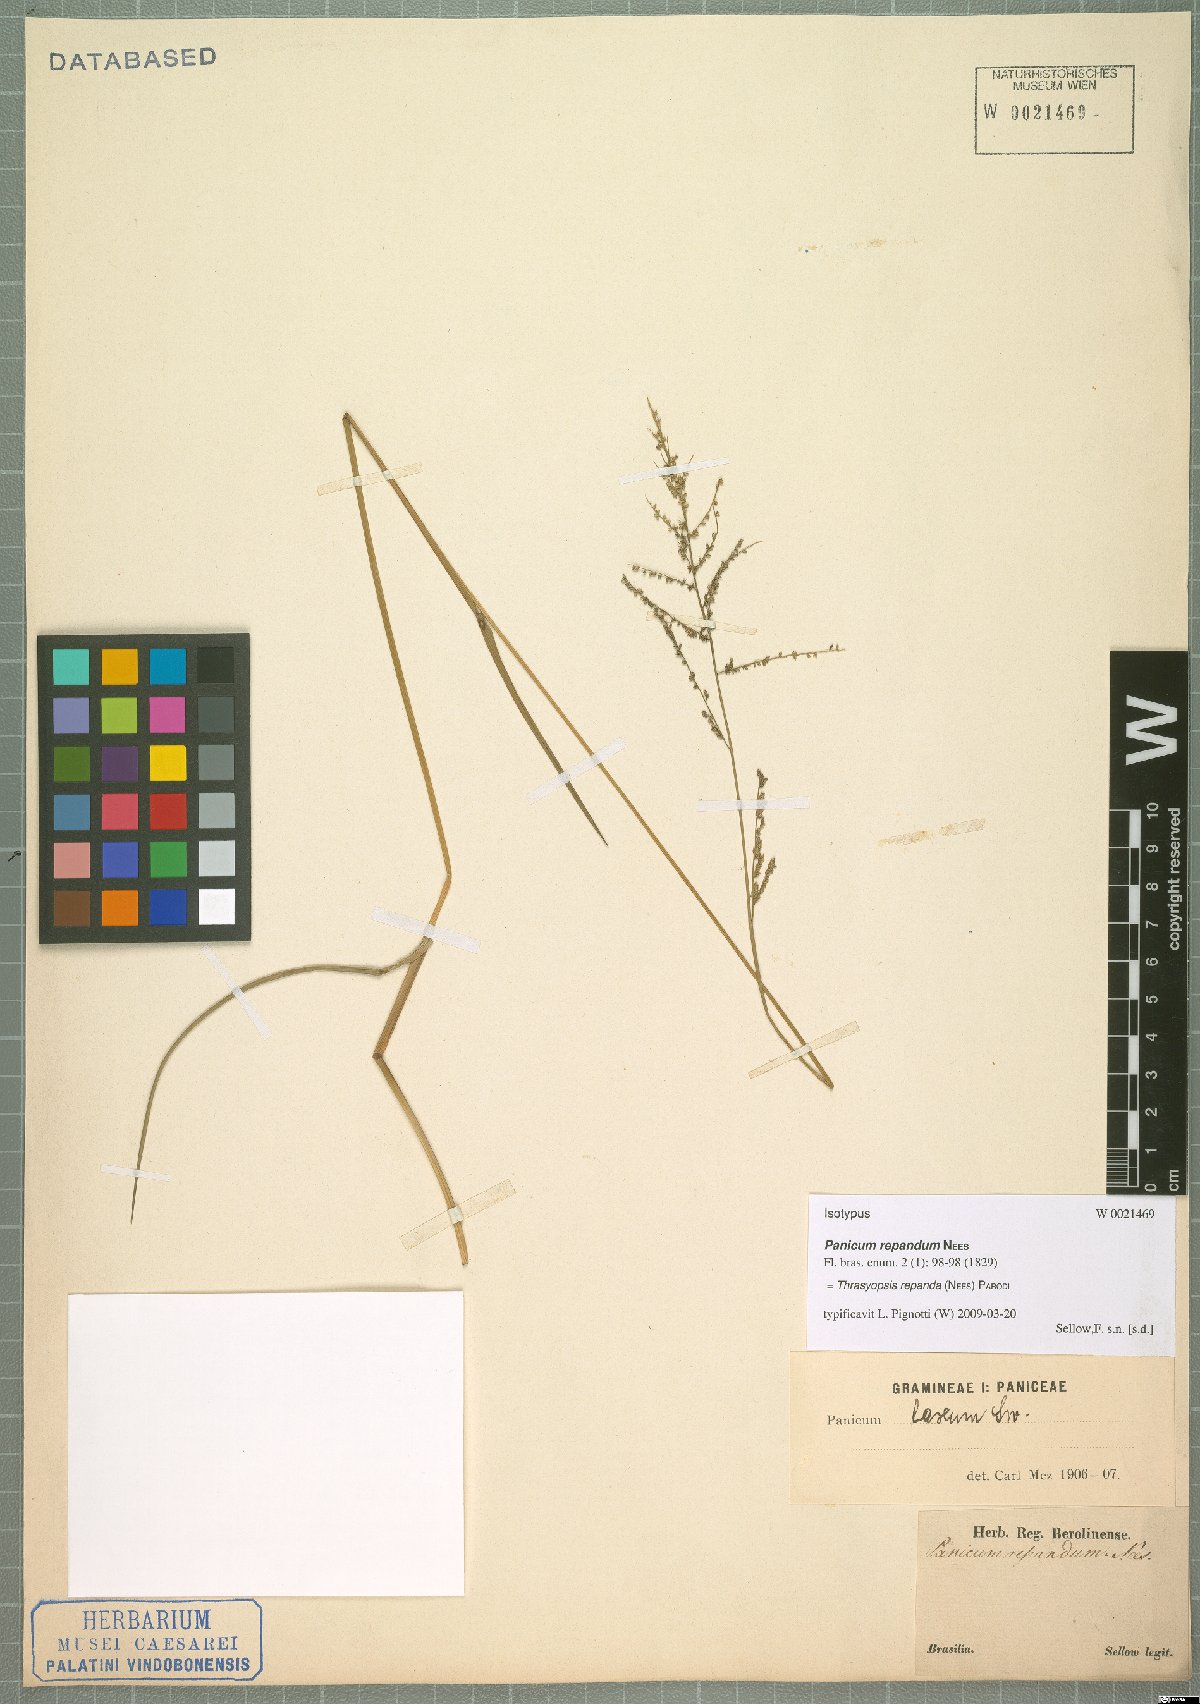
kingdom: Plantae
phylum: Tracheophyta
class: Liliopsida
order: Poales
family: Poaceae
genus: Paspalum
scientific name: Paspalum repandum
